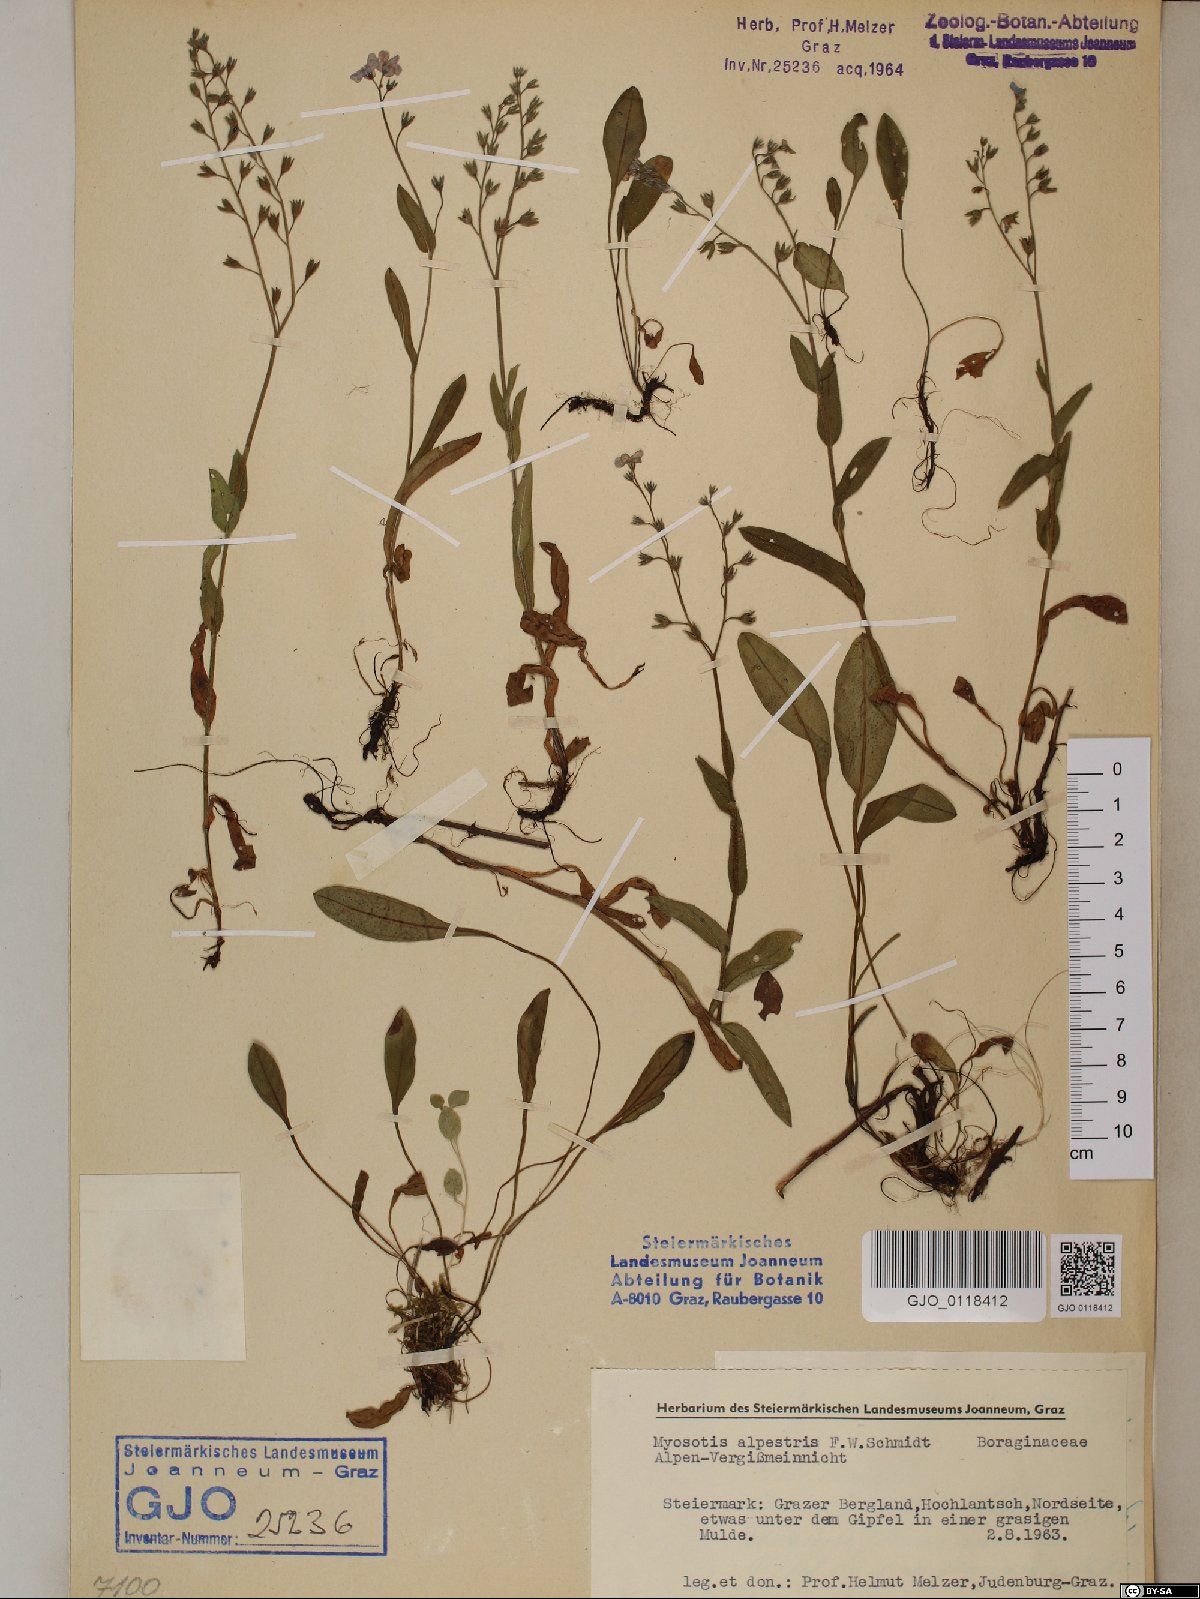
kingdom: Plantae
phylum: Tracheophyta
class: Magnoliopsida
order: Boraginales
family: Boraginaceae
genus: Myosotis
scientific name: Myosotis alpestris
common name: Alpine forget-me-not
